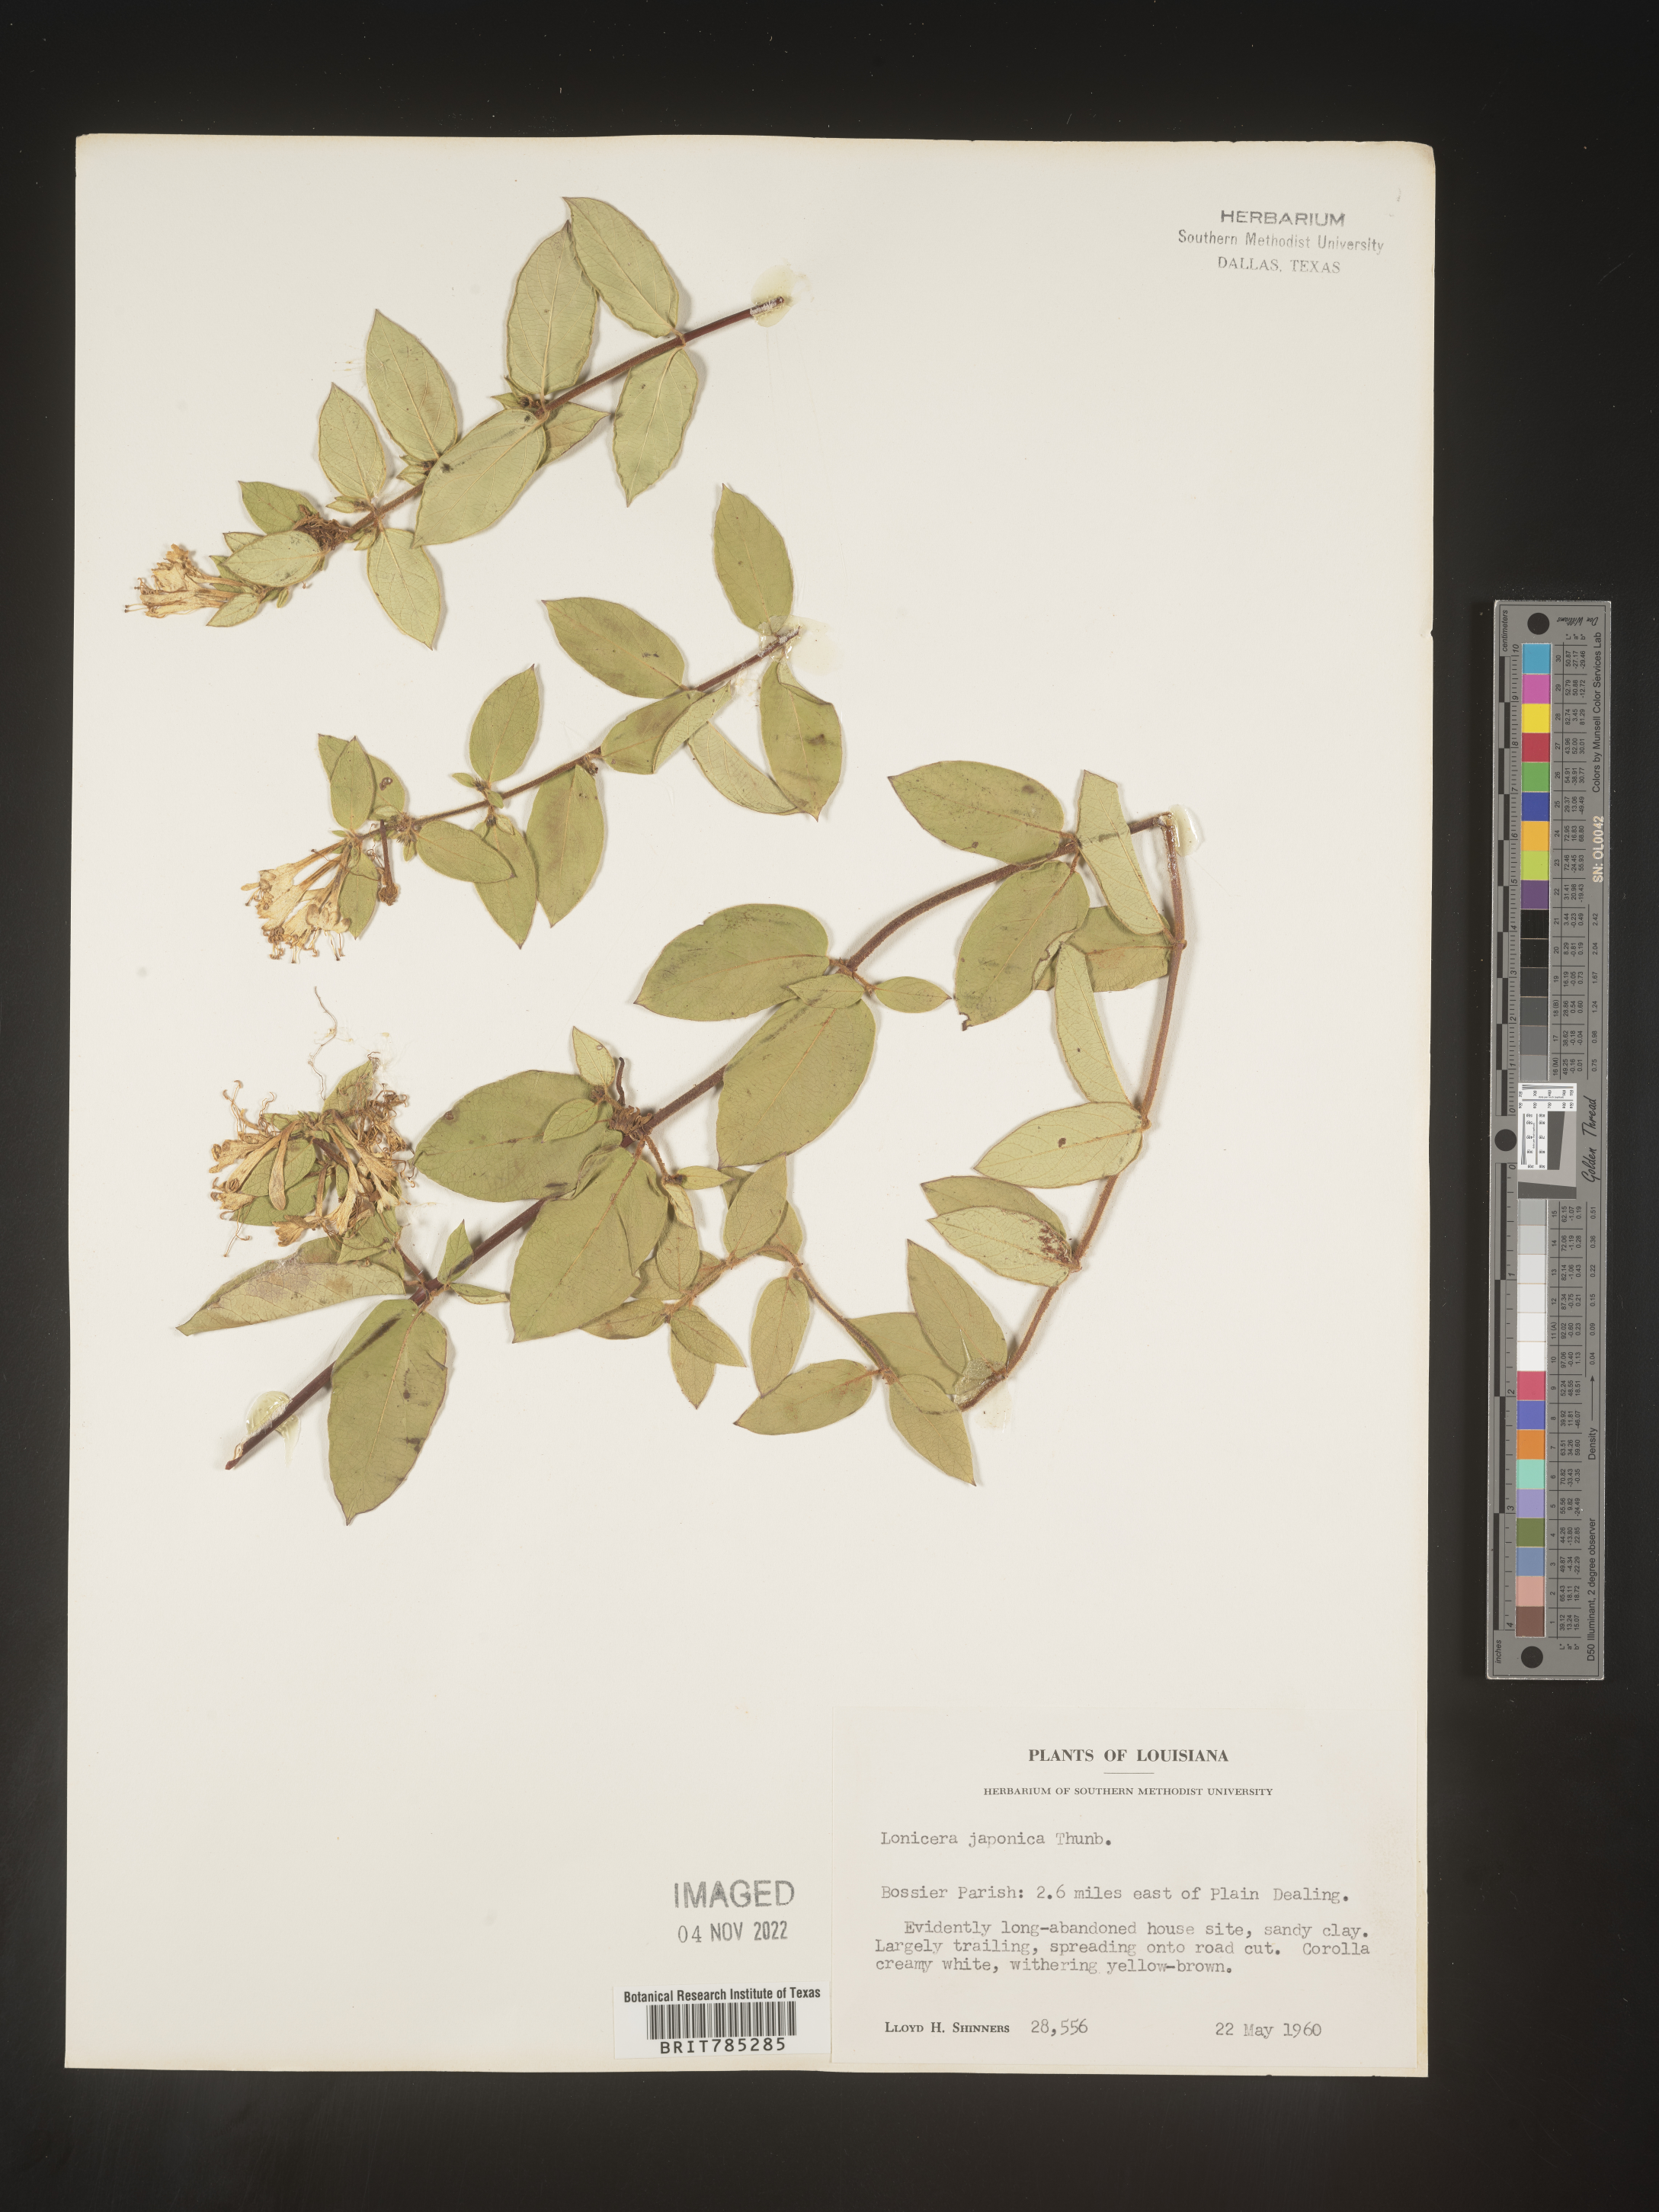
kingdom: Plantae
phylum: Tracheophyta
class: Magnoliopsida
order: Dipsacales
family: Caprifoliaceae
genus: Lonicera
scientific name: Lonicera japonica
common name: Japanese honeysuckle
